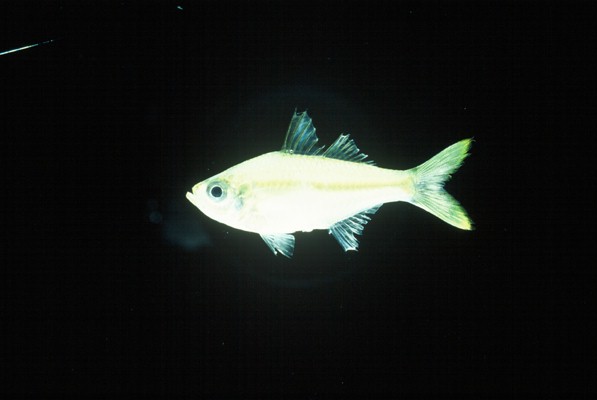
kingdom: Animalia
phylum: Chordata
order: Perciformes
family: Ambassidae
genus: Ambassis
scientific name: Ambassis gymnocephalus
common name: Bald glassy
